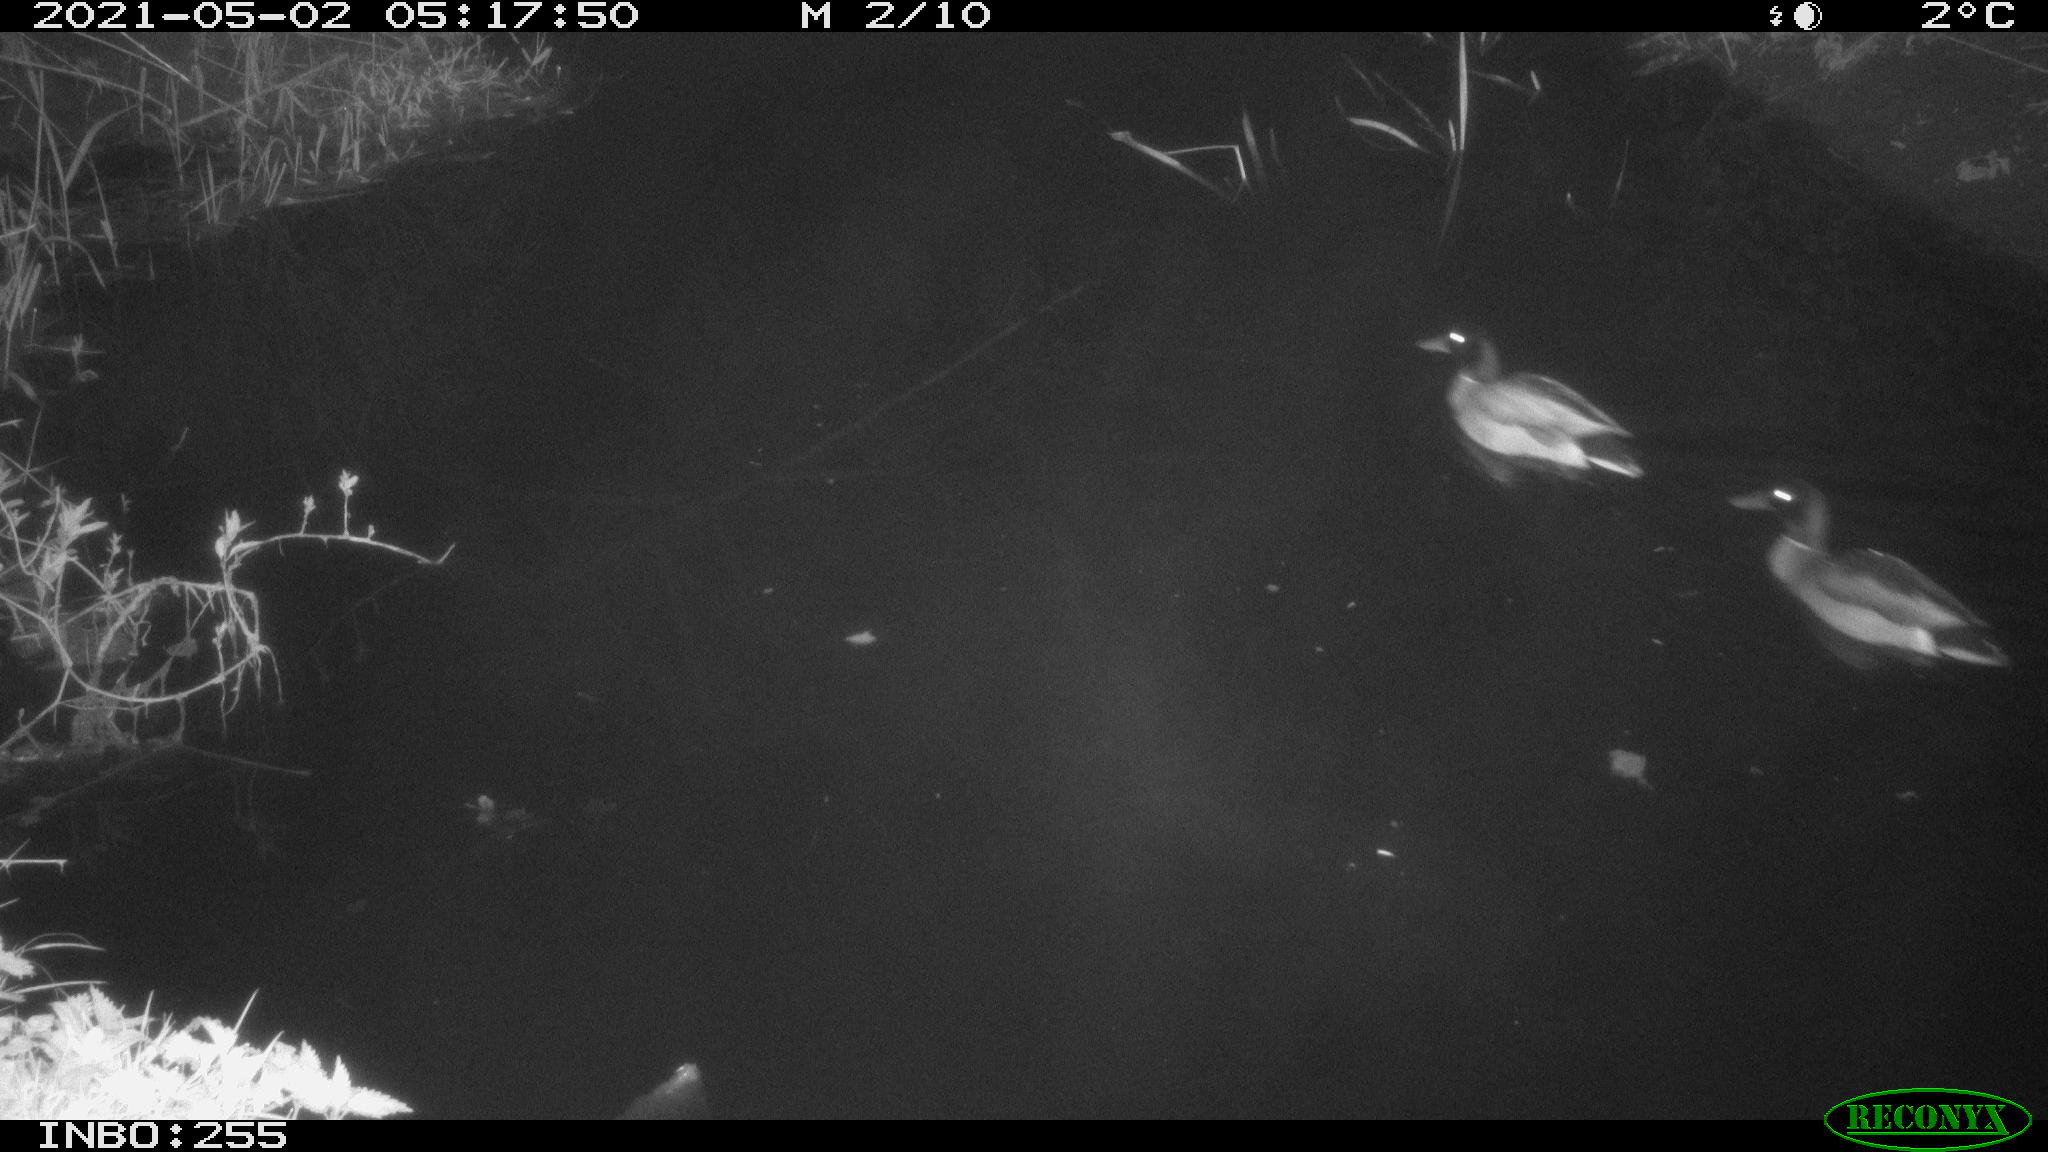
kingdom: Animalia
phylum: Chordata
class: Aves
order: Anseriformes
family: Anatidae
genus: Anas
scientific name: Anas platyrhynchos
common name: Mallard
